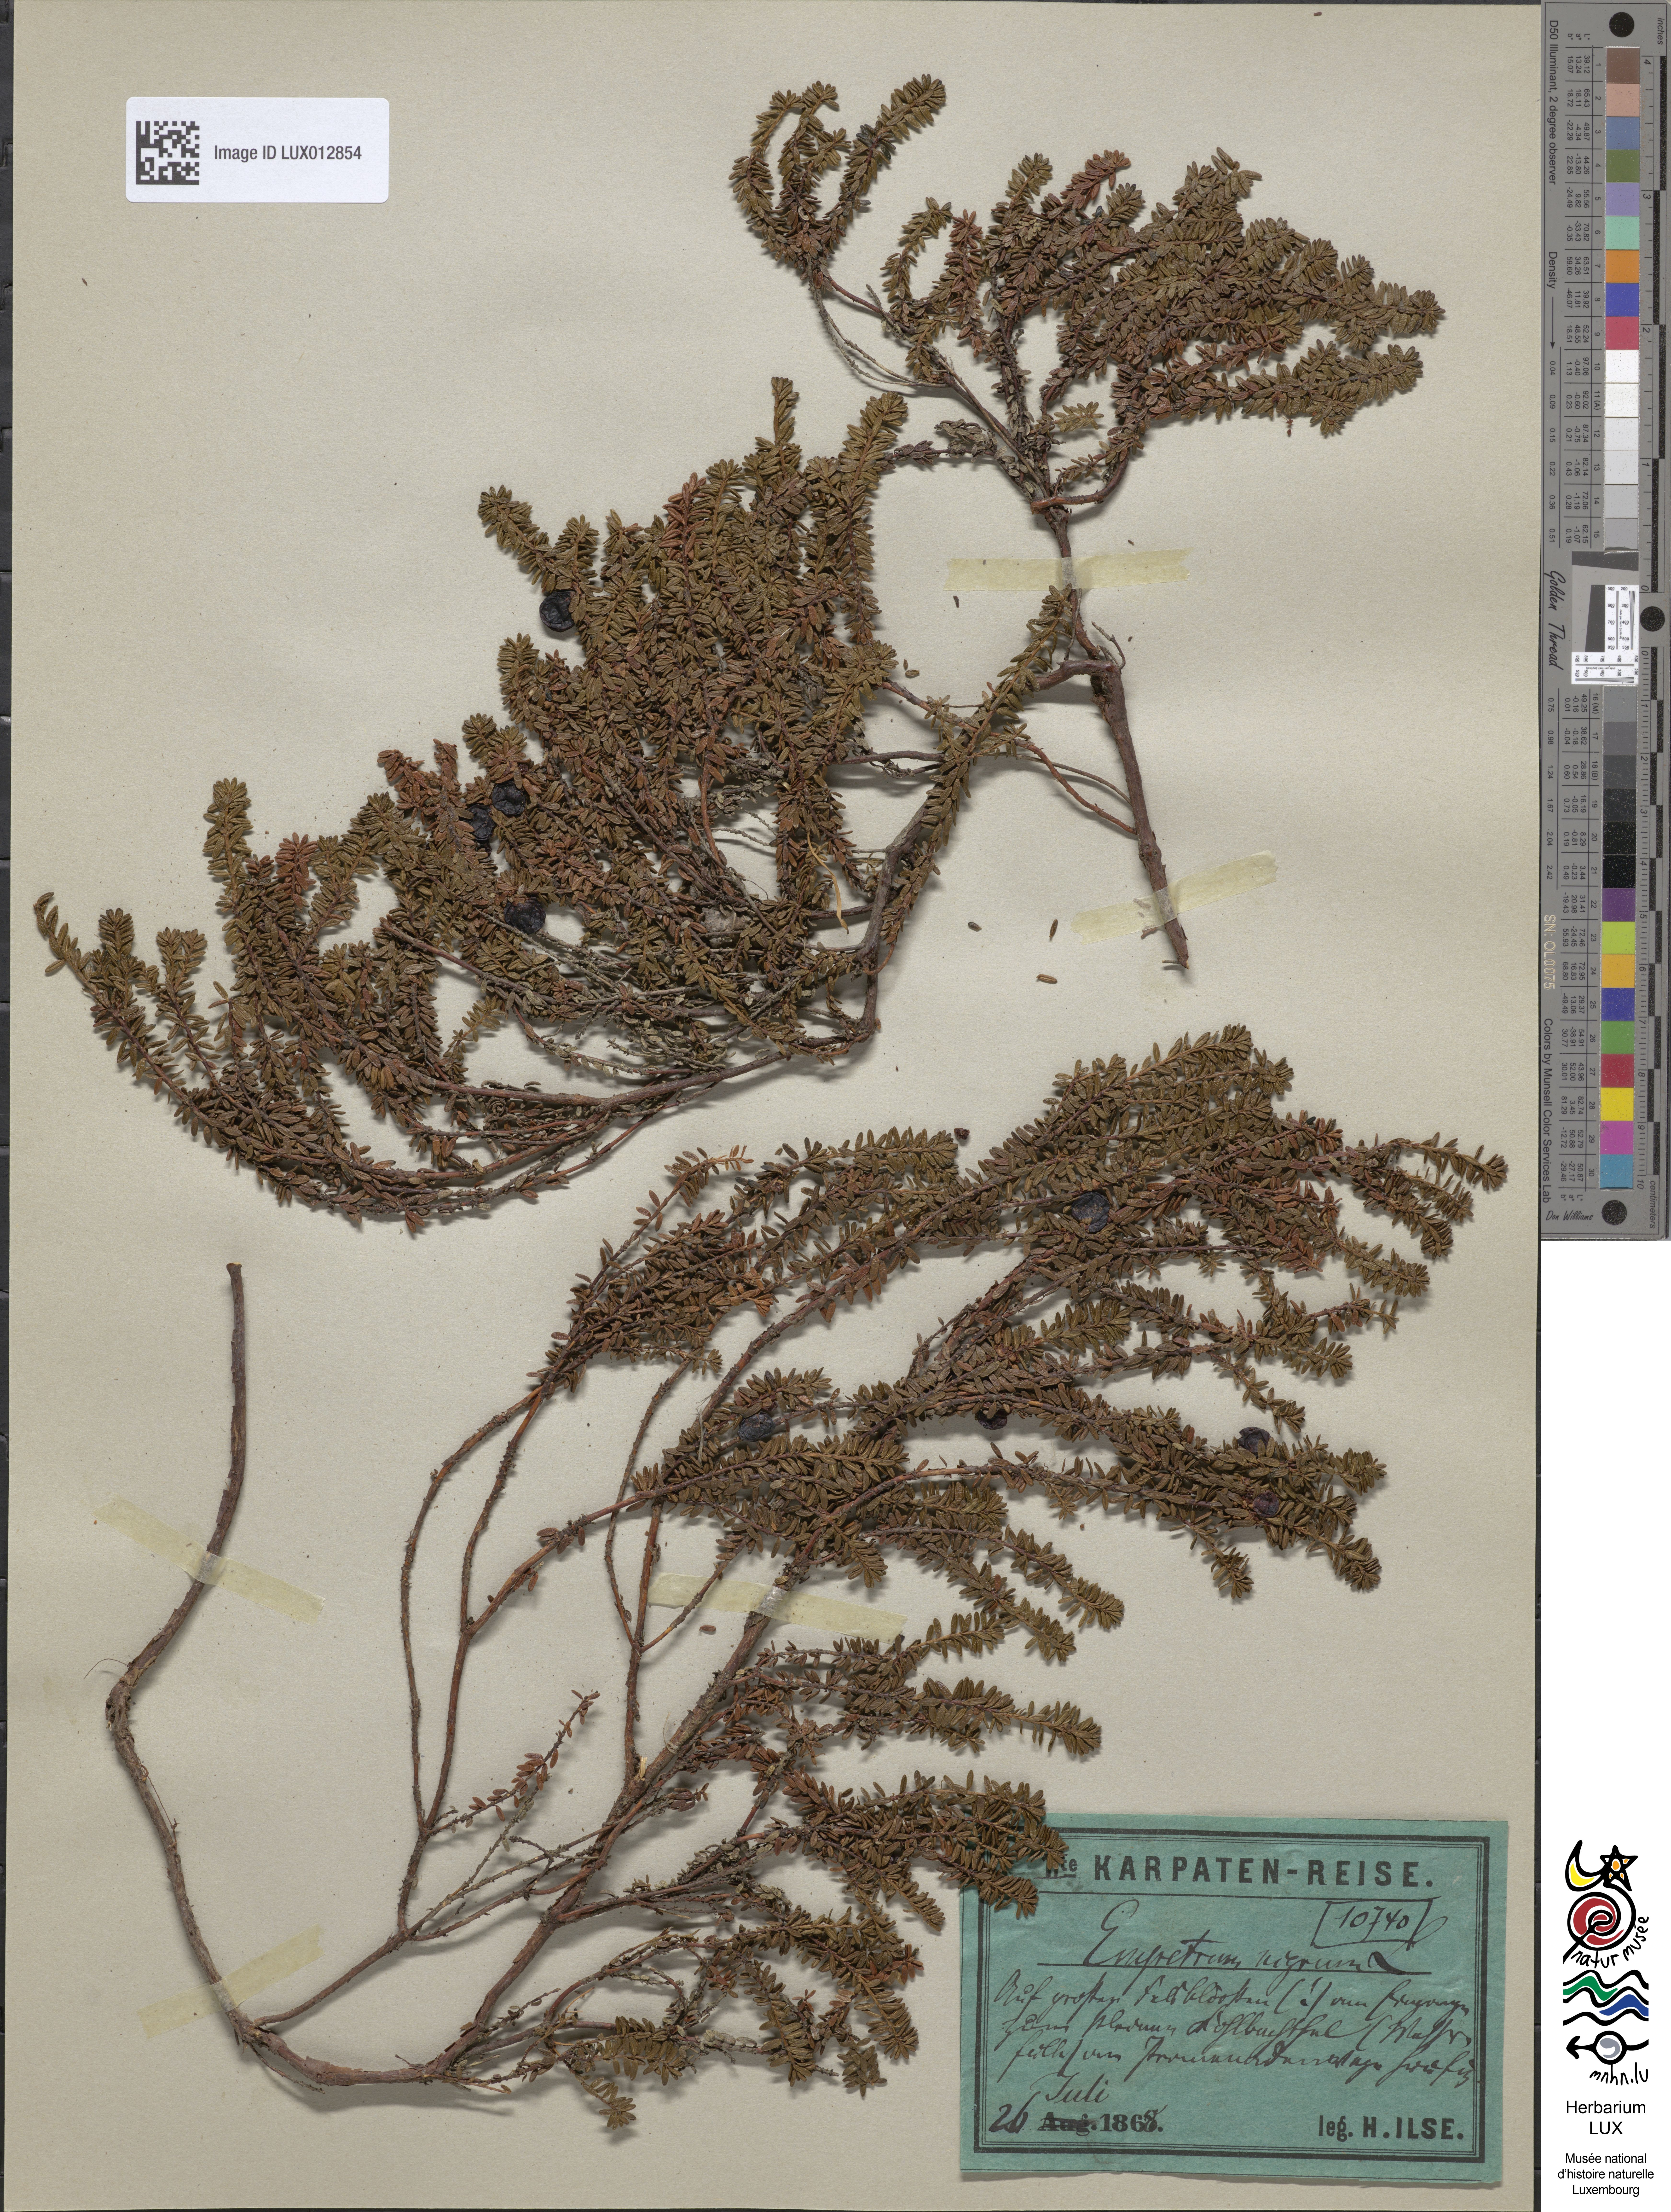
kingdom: Plantae
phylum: Tracheophyta
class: Magnoliopsida
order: Ericales
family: Ericaceae
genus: Empetrum
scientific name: Empetrum nigrum
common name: Black crowberry
